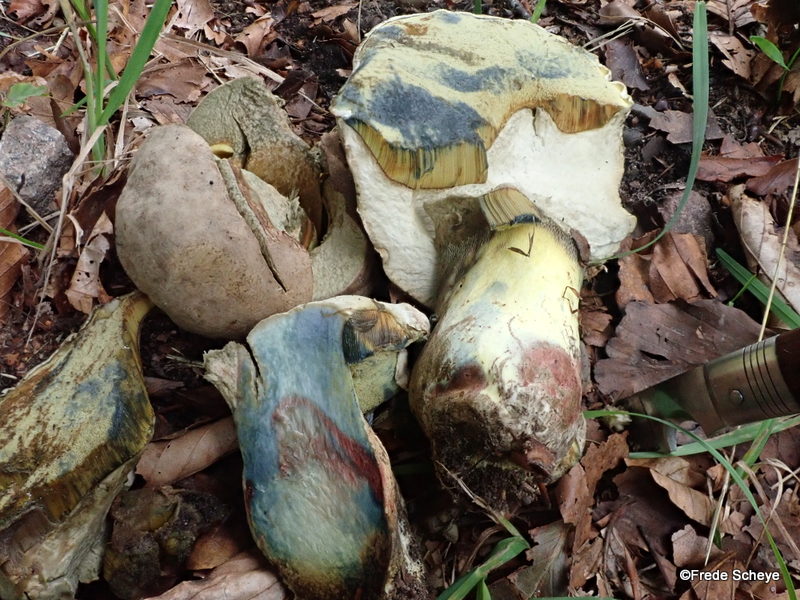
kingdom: Fungi
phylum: Basidiomycota
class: Agaricomycetes
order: Boletales
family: Boletaceae
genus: Caloboletus
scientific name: Caloboletus radicans
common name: rod-rørhat
